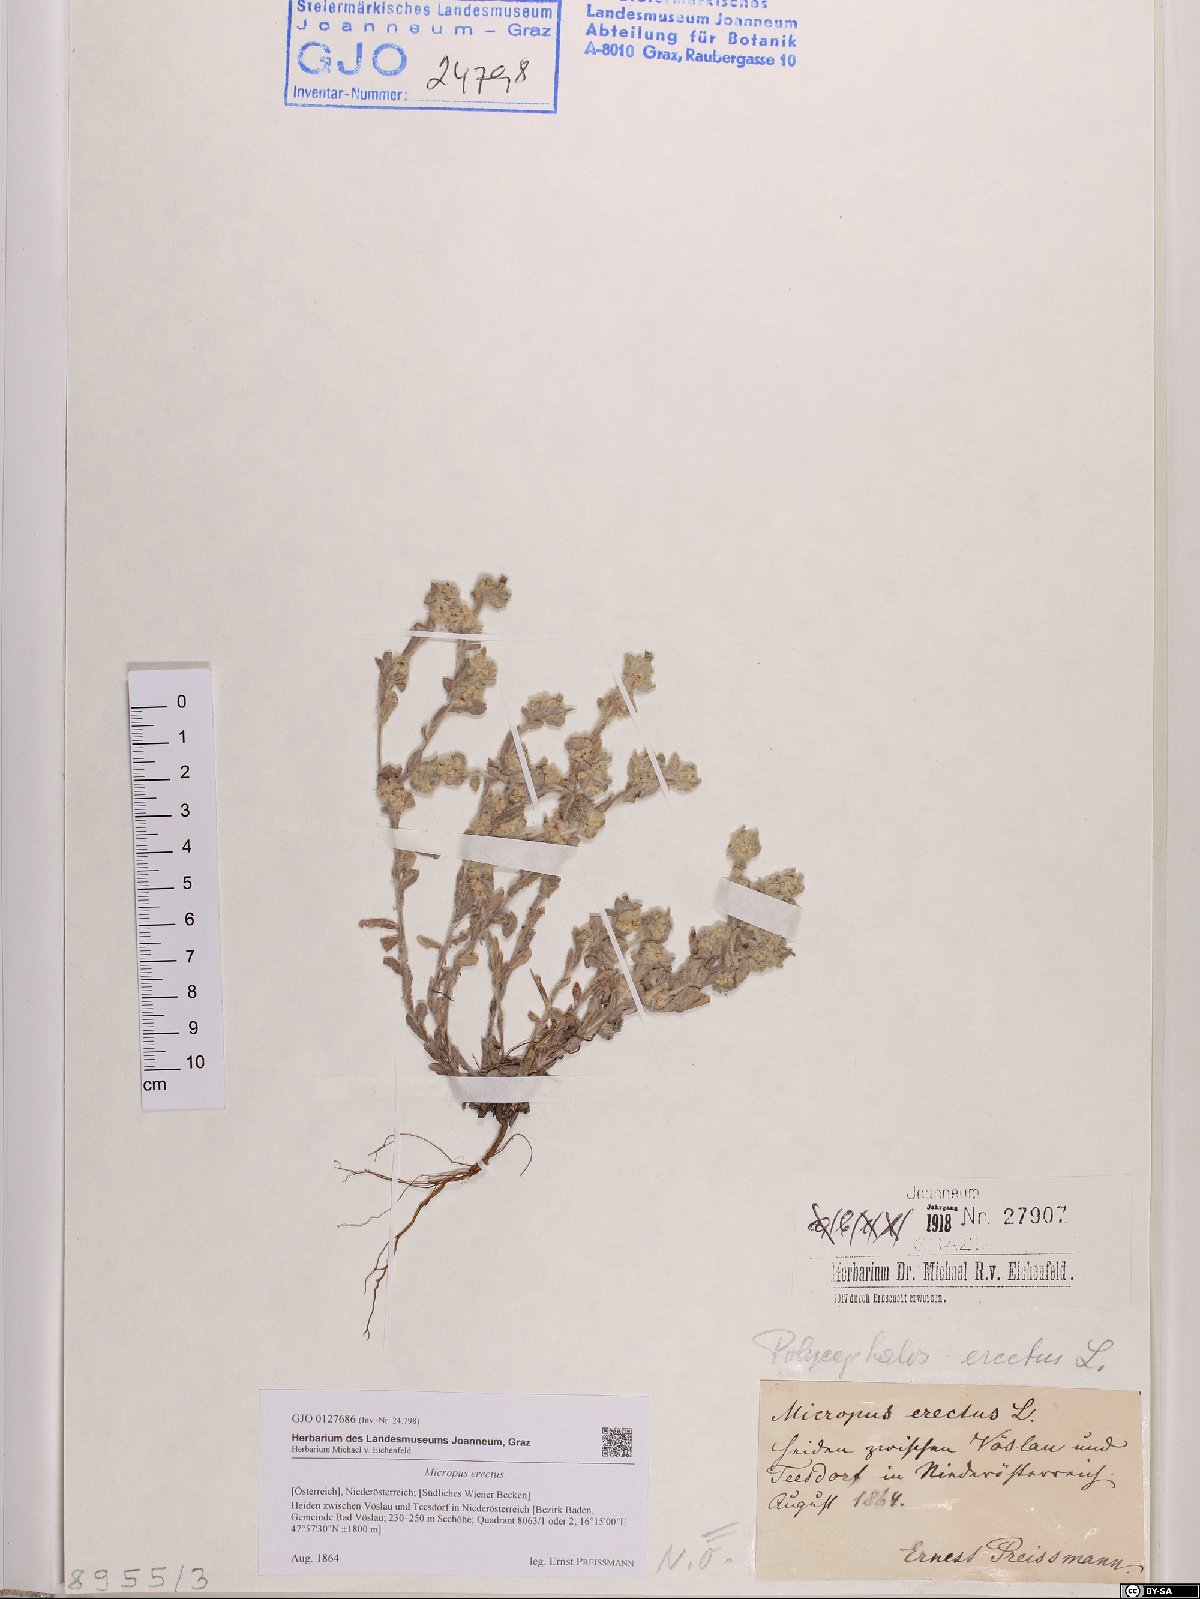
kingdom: Plantae
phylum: Tracheophyta
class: Magnoliopsida
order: Asterales
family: Asteraceae
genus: Bombycilaena
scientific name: Bombycilaena erecta
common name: Micropus
